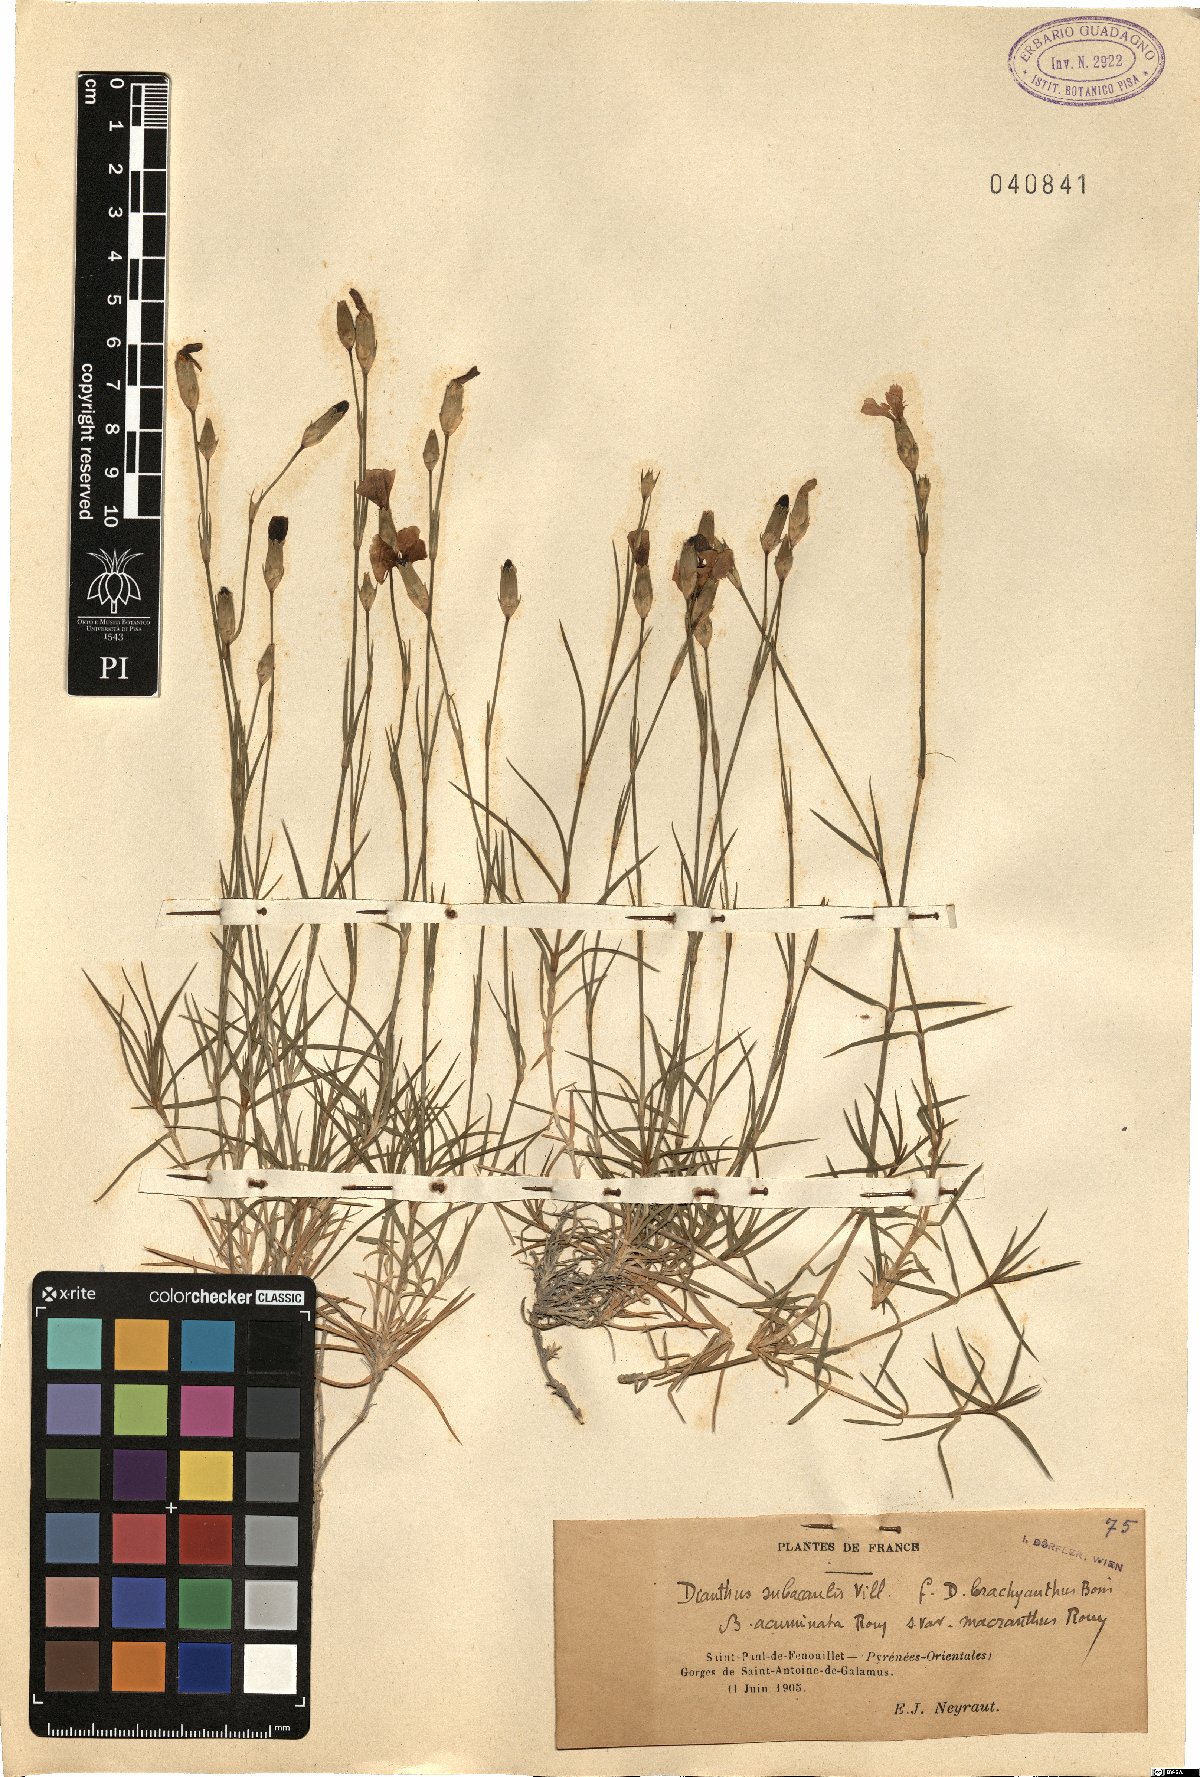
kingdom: Plantae
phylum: Tracheophyta
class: Magnoliopsida
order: Caryophyllales
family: Caryophyllaceae
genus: Dianthus
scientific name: Dianthus subacaulis
